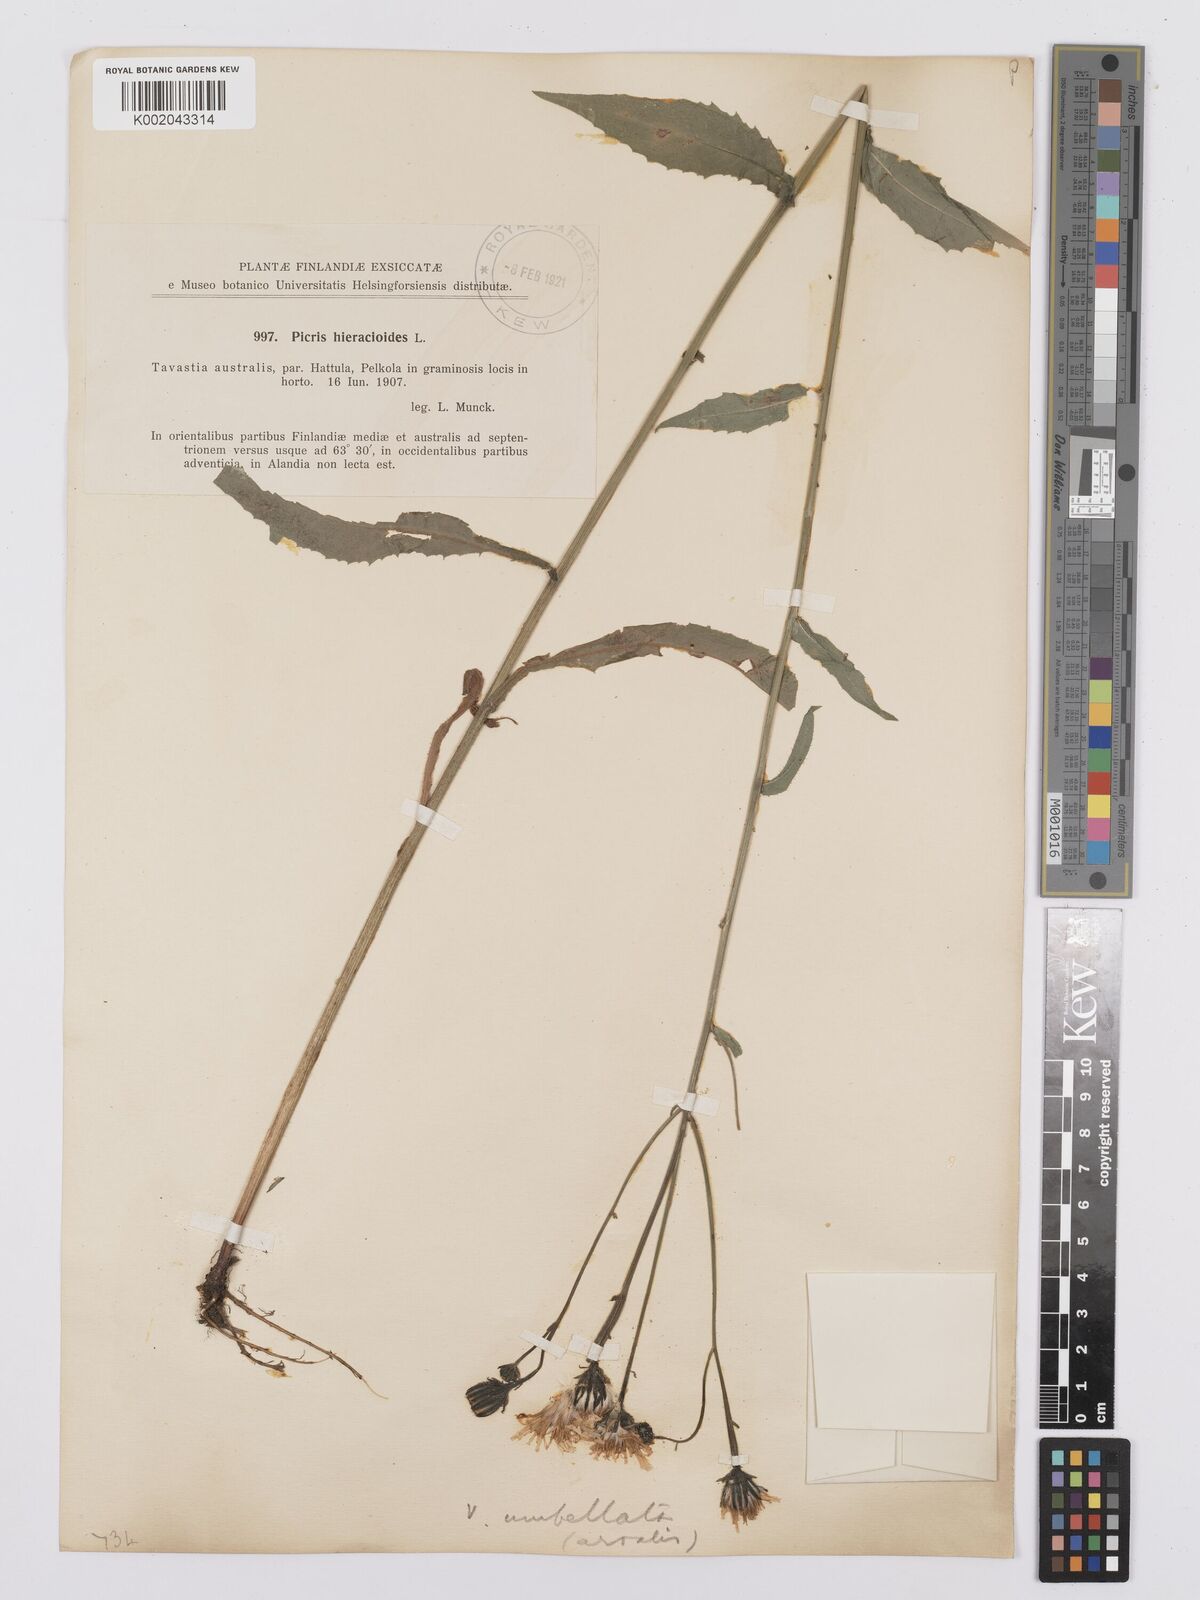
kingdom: Plantae
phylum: Tracheophyta
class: Magnoliopsida
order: Asterales
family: Asteraceae
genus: Picris
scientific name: Picris hieracioides
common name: Hawkweed oxtongue
